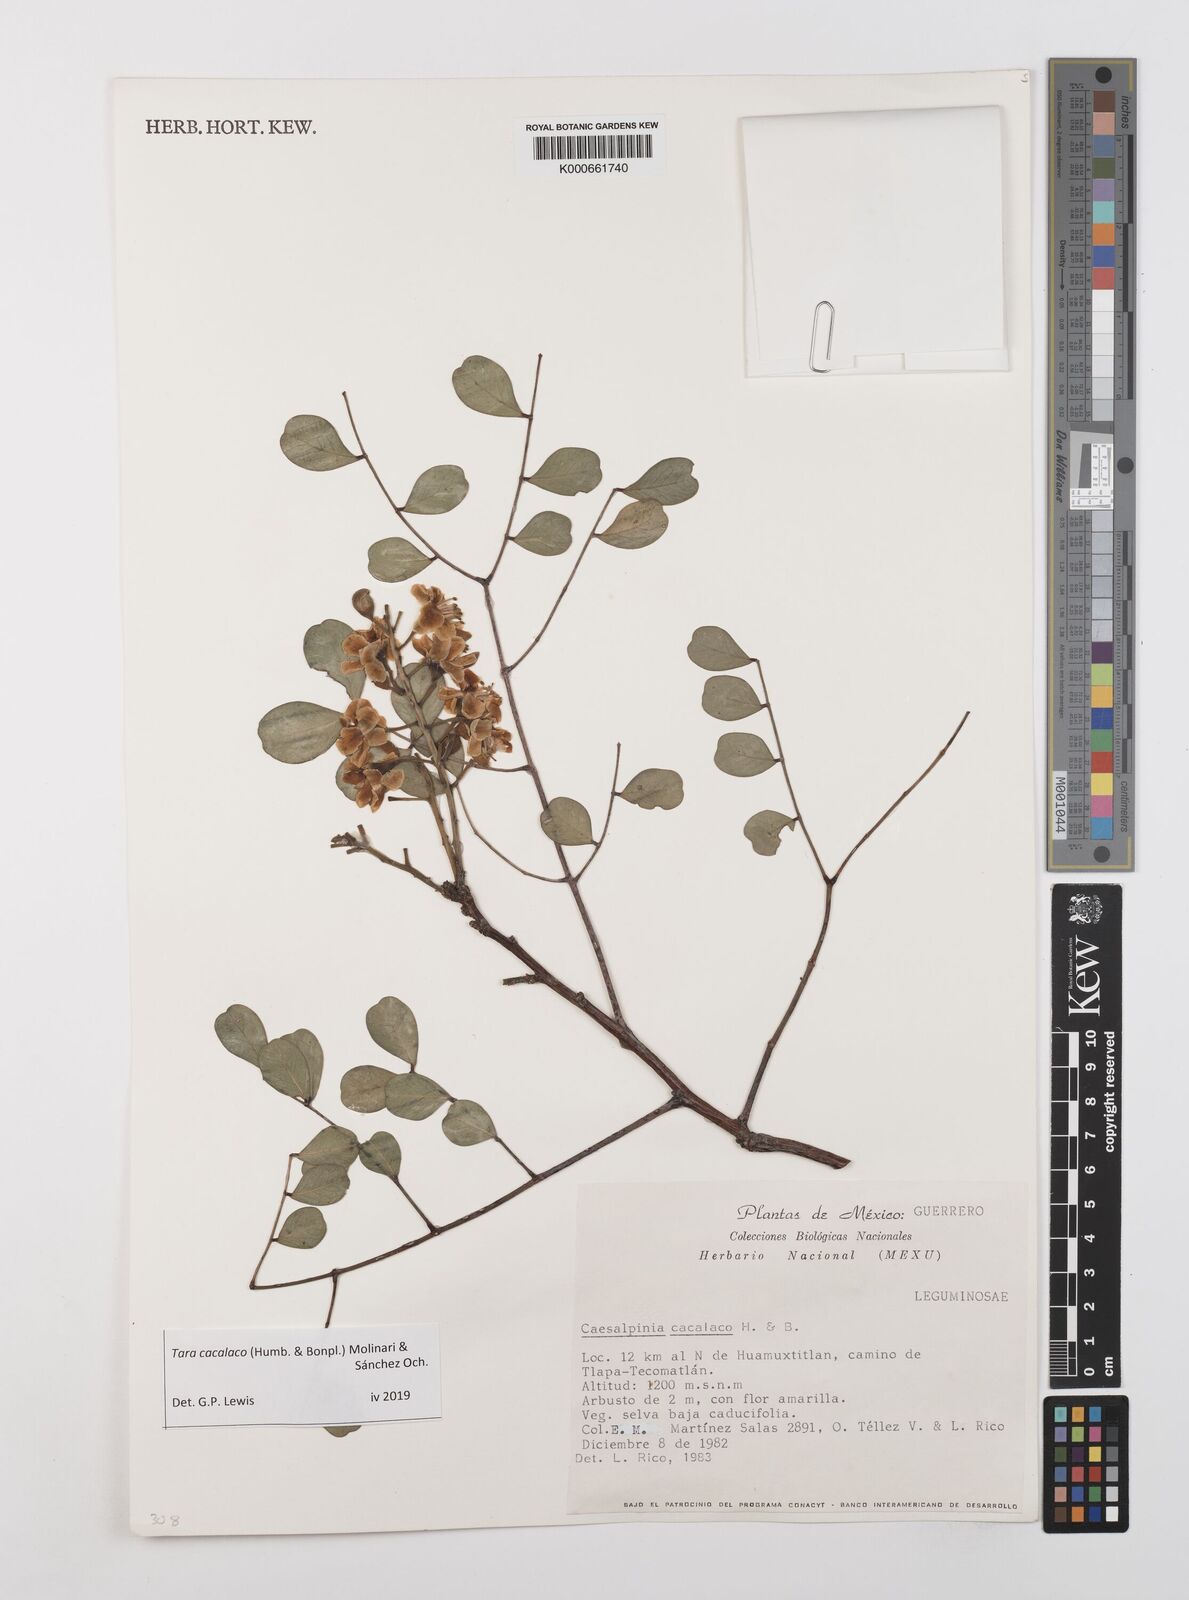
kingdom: Plantae
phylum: Tracheophyta
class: Magnoliopsida
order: Fabales
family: Fabaceae
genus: Tara
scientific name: Tara cacalaco
